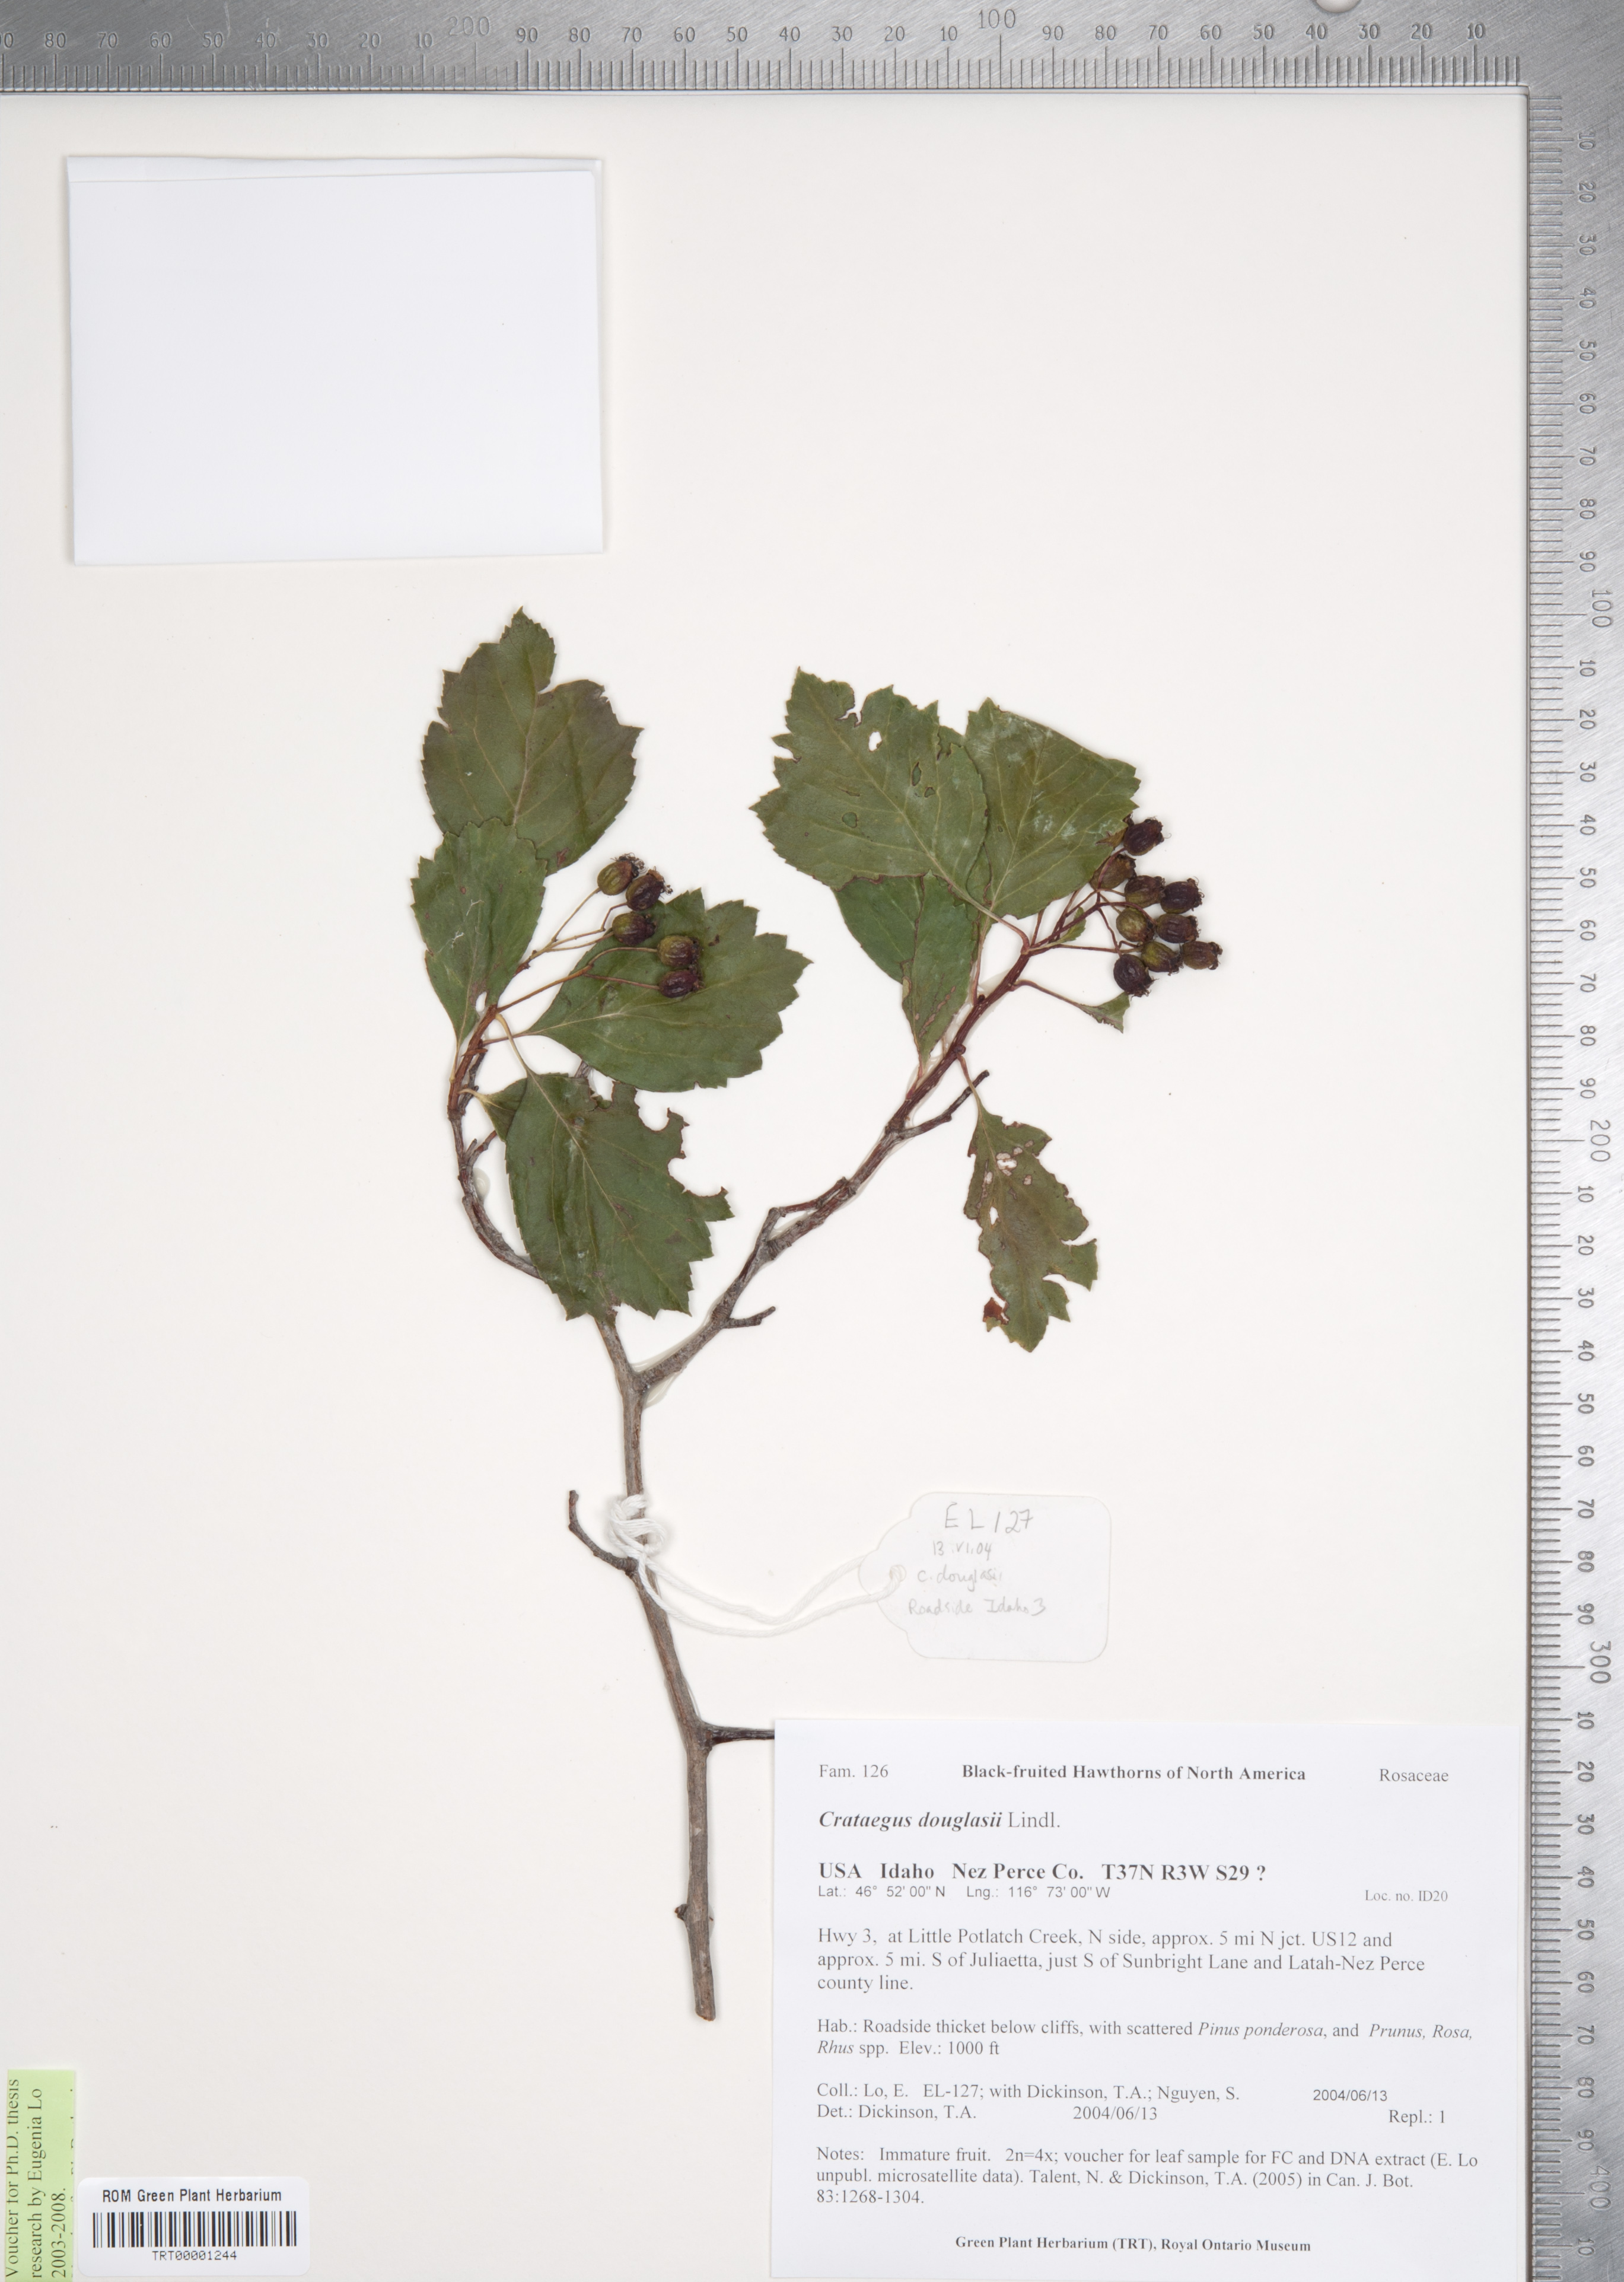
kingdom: Plantae
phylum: Tracheophyta
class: Magnoliopsida
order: Rosales
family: Rosaceae
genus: Crataegus
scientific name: Crataegus douglasii
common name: Black hawthorn
